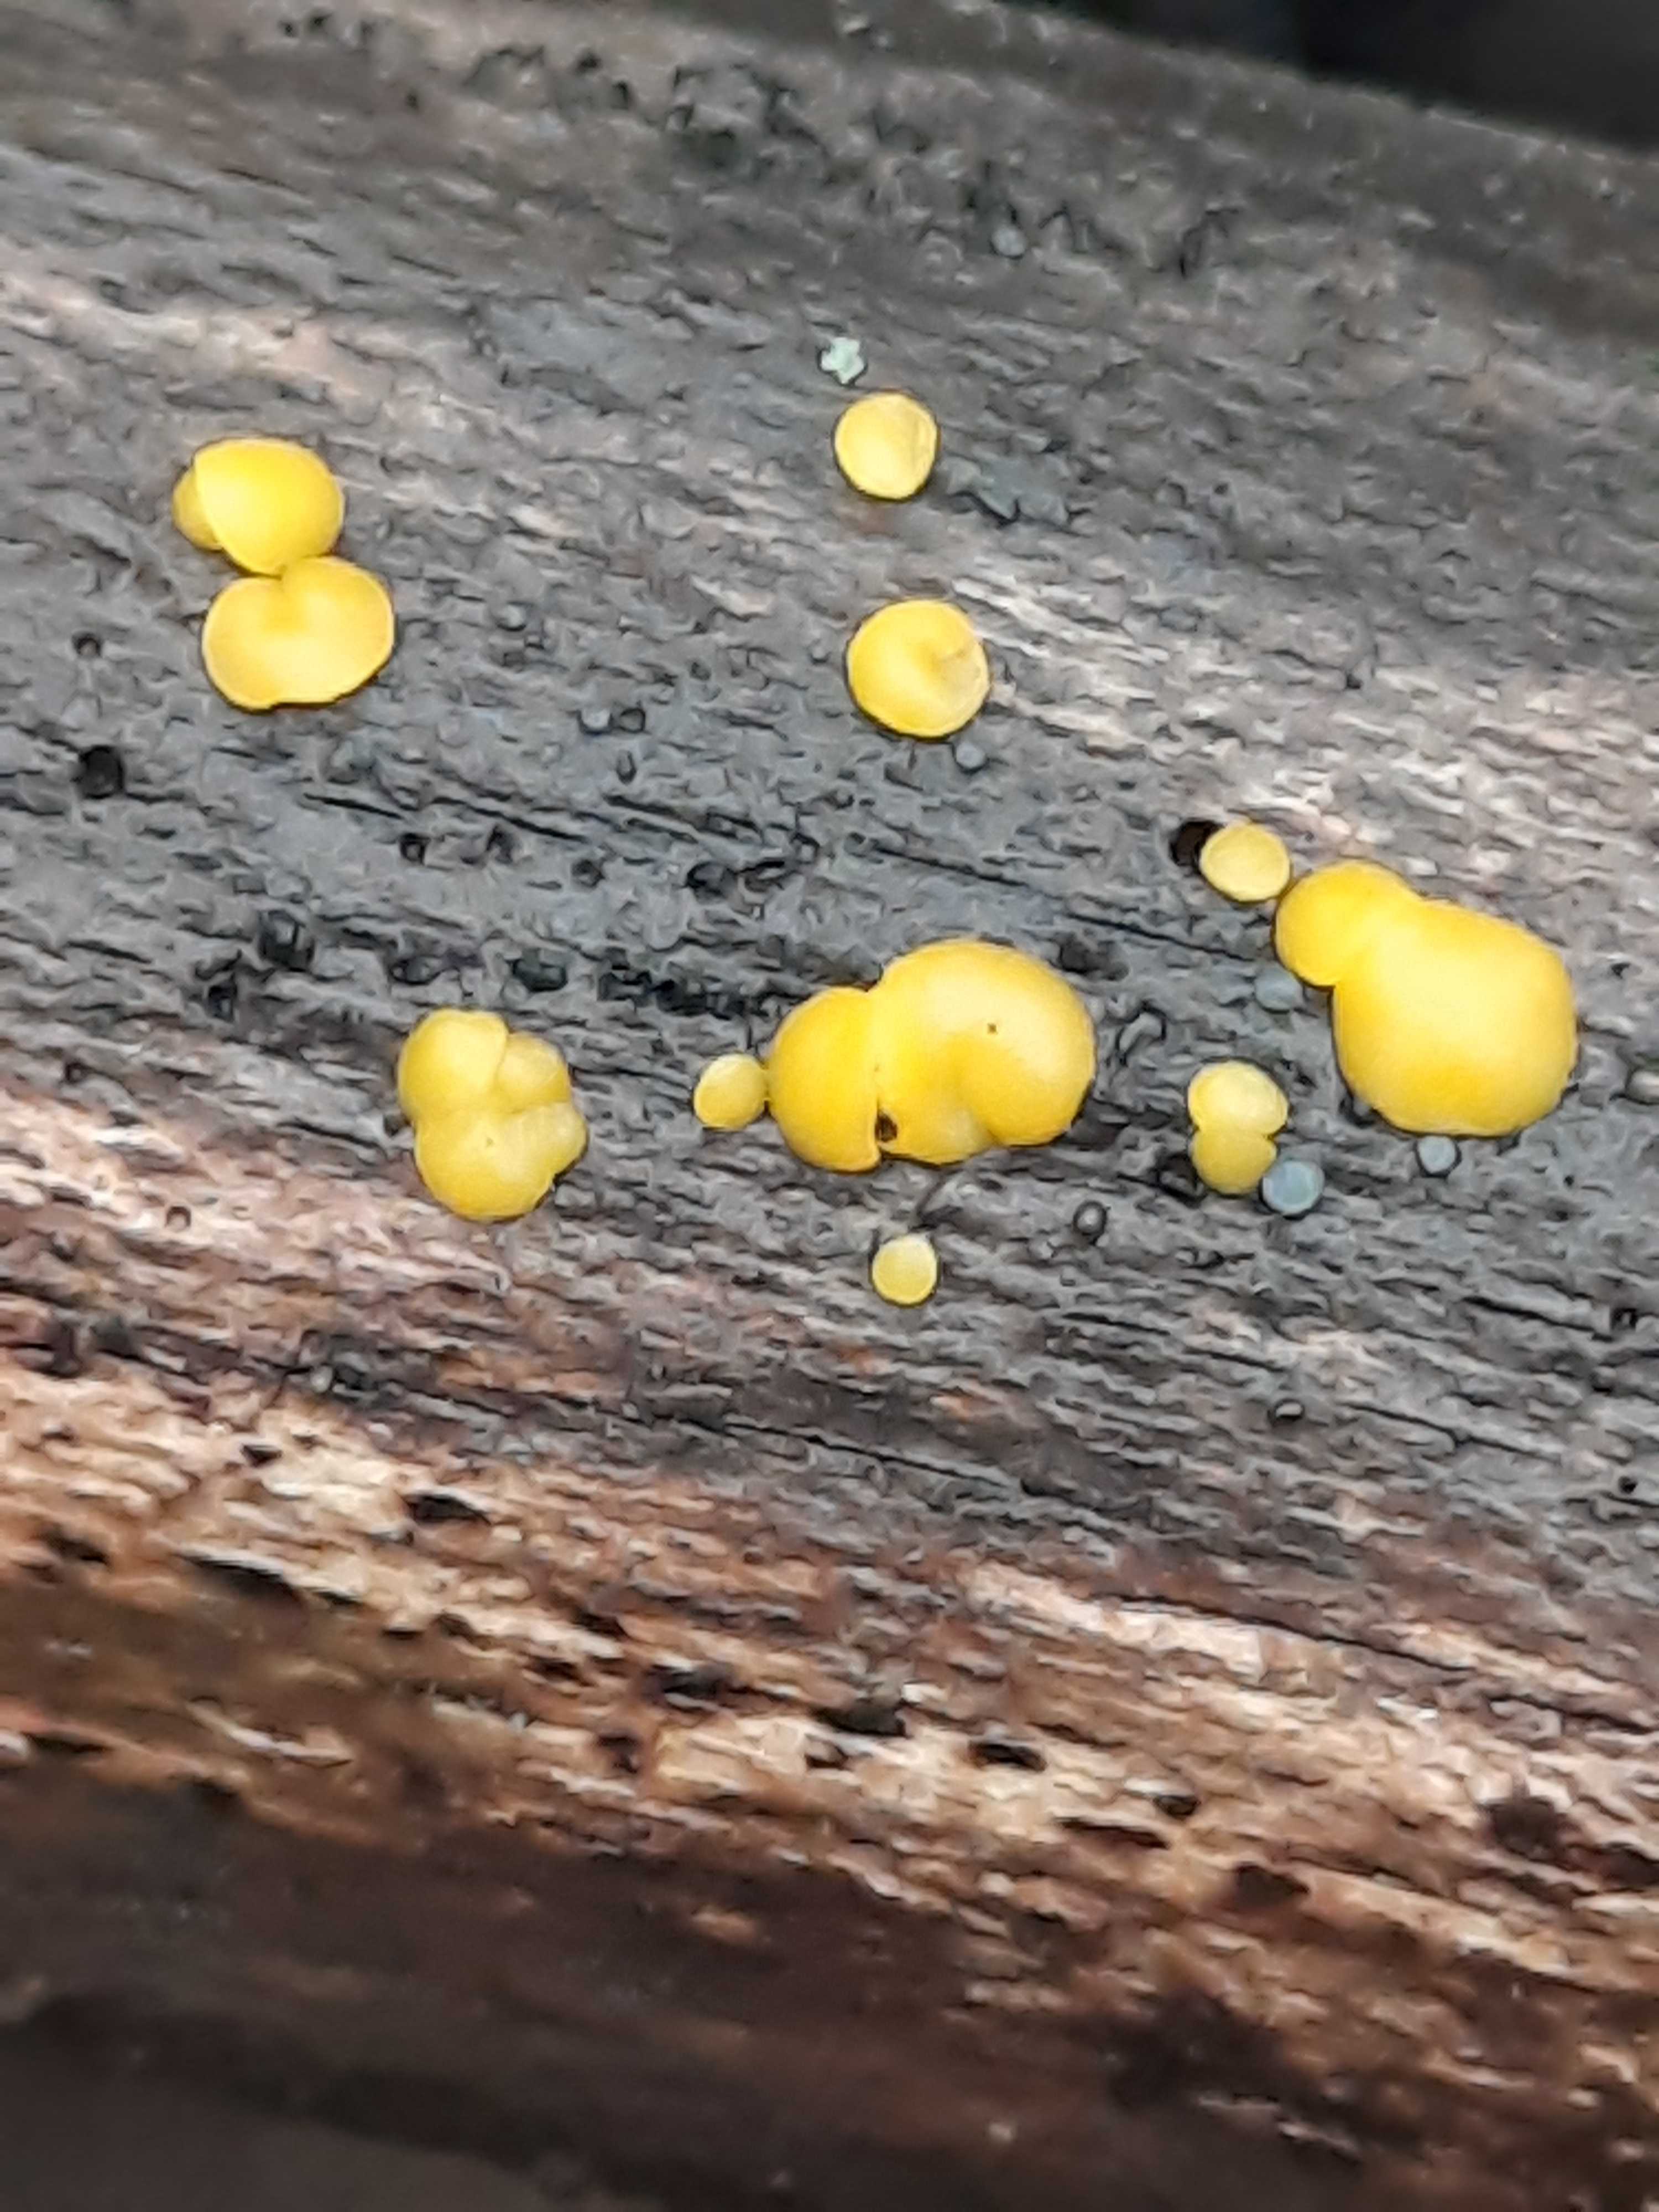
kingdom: Fungi
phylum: Ascomycota
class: Leotiomycetes
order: Helotiales
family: Pezizellaceae
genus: Calycina
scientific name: Calycina citrina
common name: almindelig gulskive
